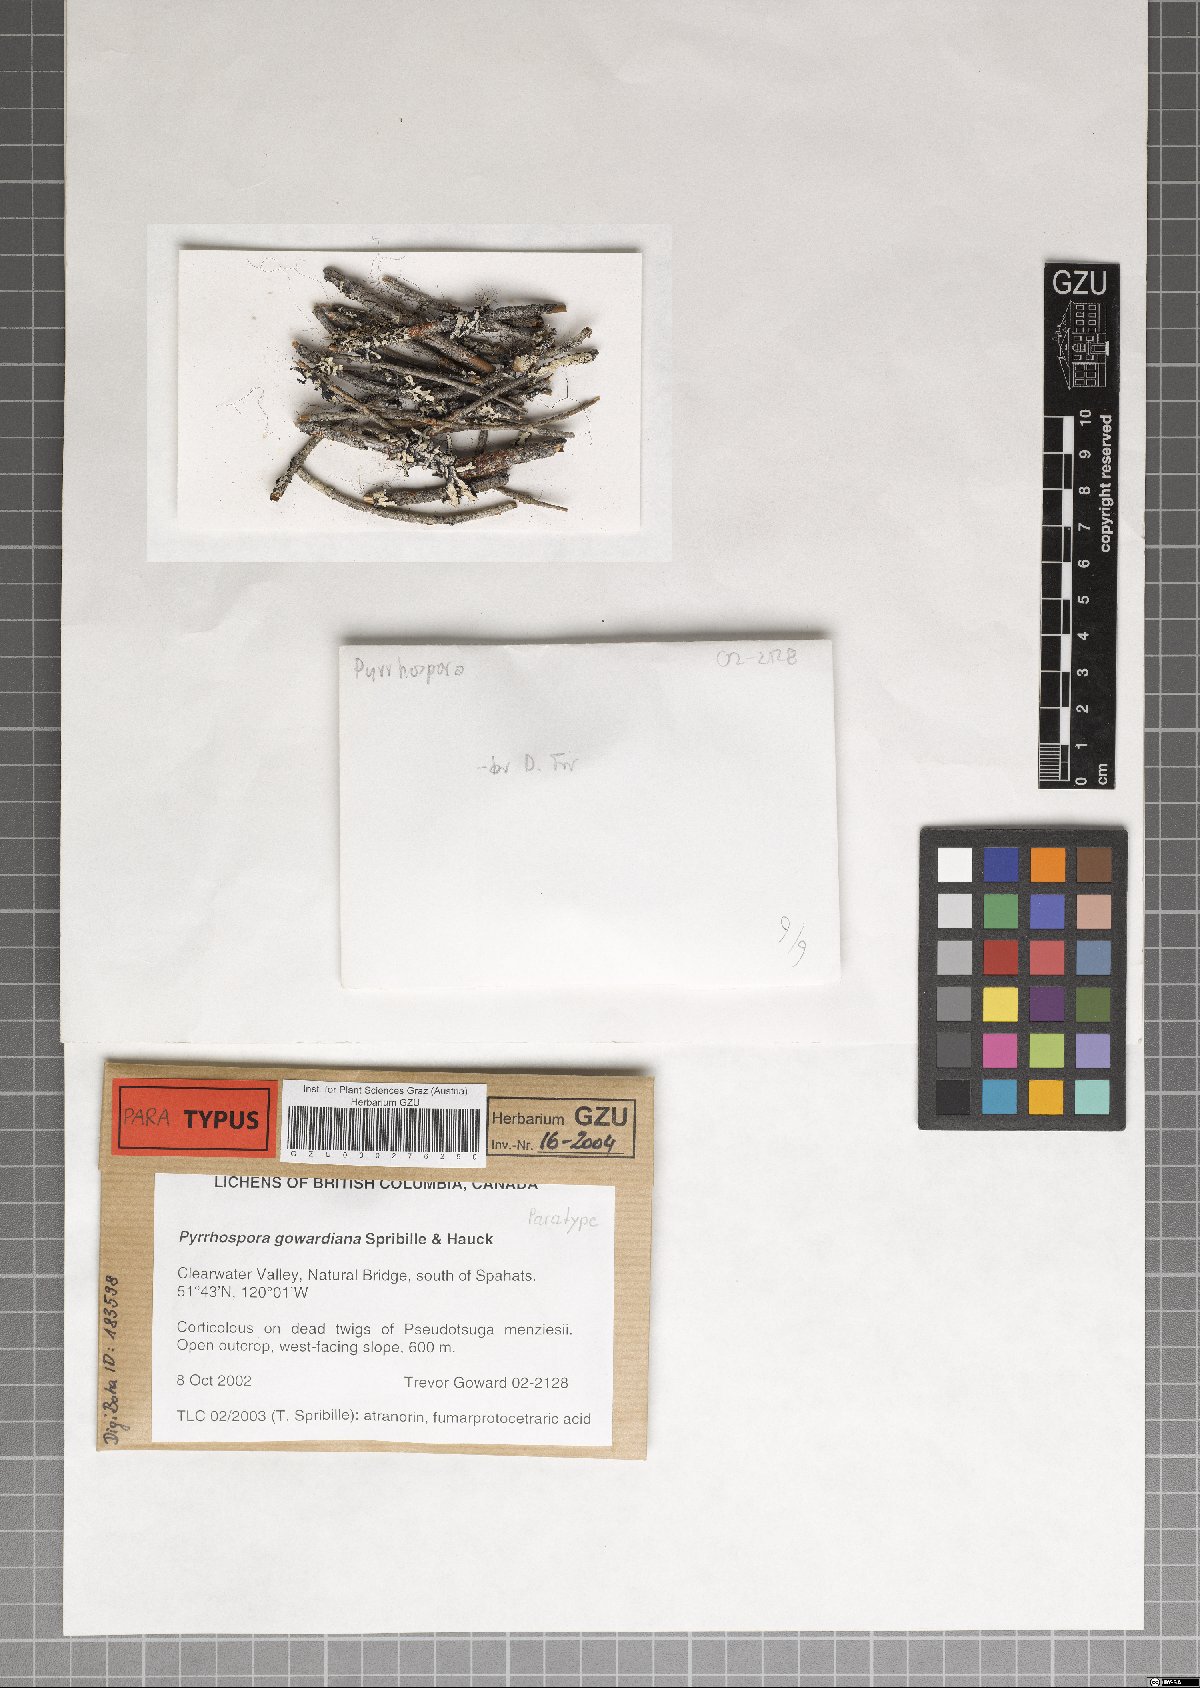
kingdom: Fungi
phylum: Ascomycota
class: Lecanoromycetes
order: Lecanorales
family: Ramboldiaceae
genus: Ramboldia
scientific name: Ramboldia gowardiana
